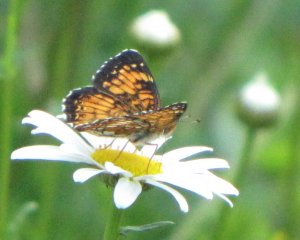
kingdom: Animalia
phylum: Arthropoda
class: Insecta
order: Lepidoptera
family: Nymphalidae
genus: Chlosyne
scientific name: Chlosyne harrisii
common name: Harris's Checkerspot
